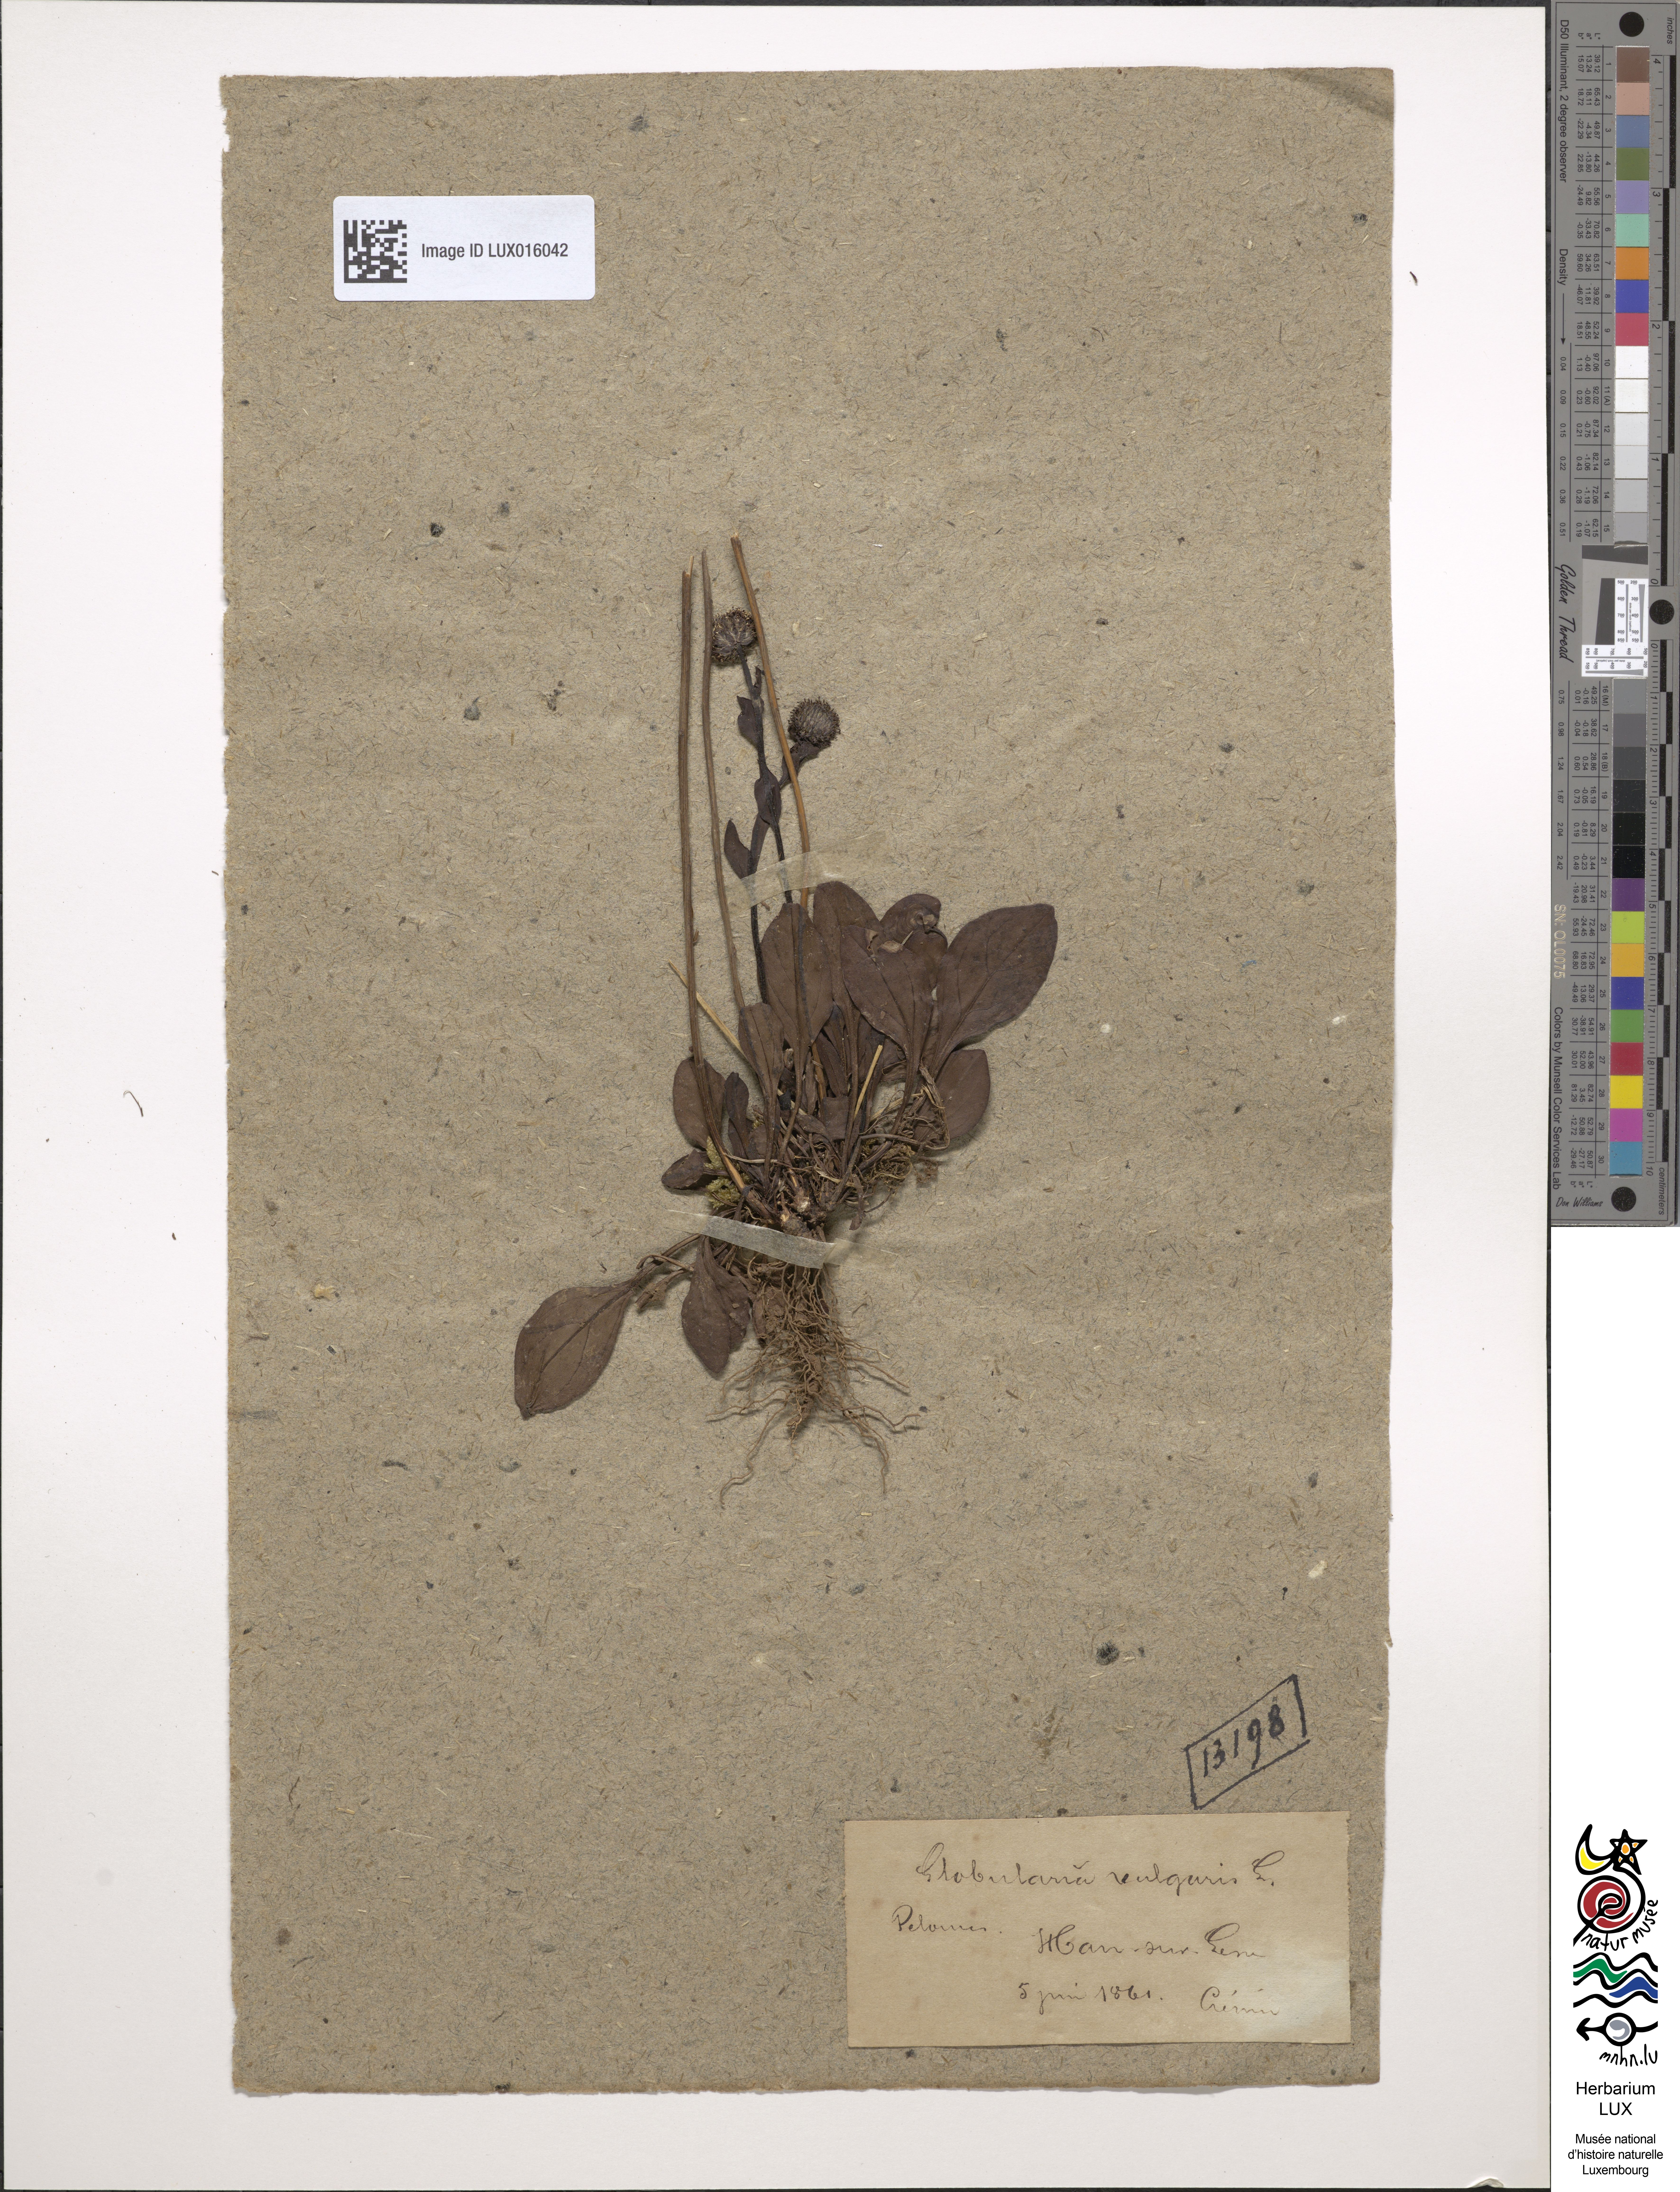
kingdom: Plantae
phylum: Tracheophyta
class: Magnoliopsida
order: Lamiales
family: Plantaginaceae
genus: Globularia
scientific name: Globularia bisnagarica
